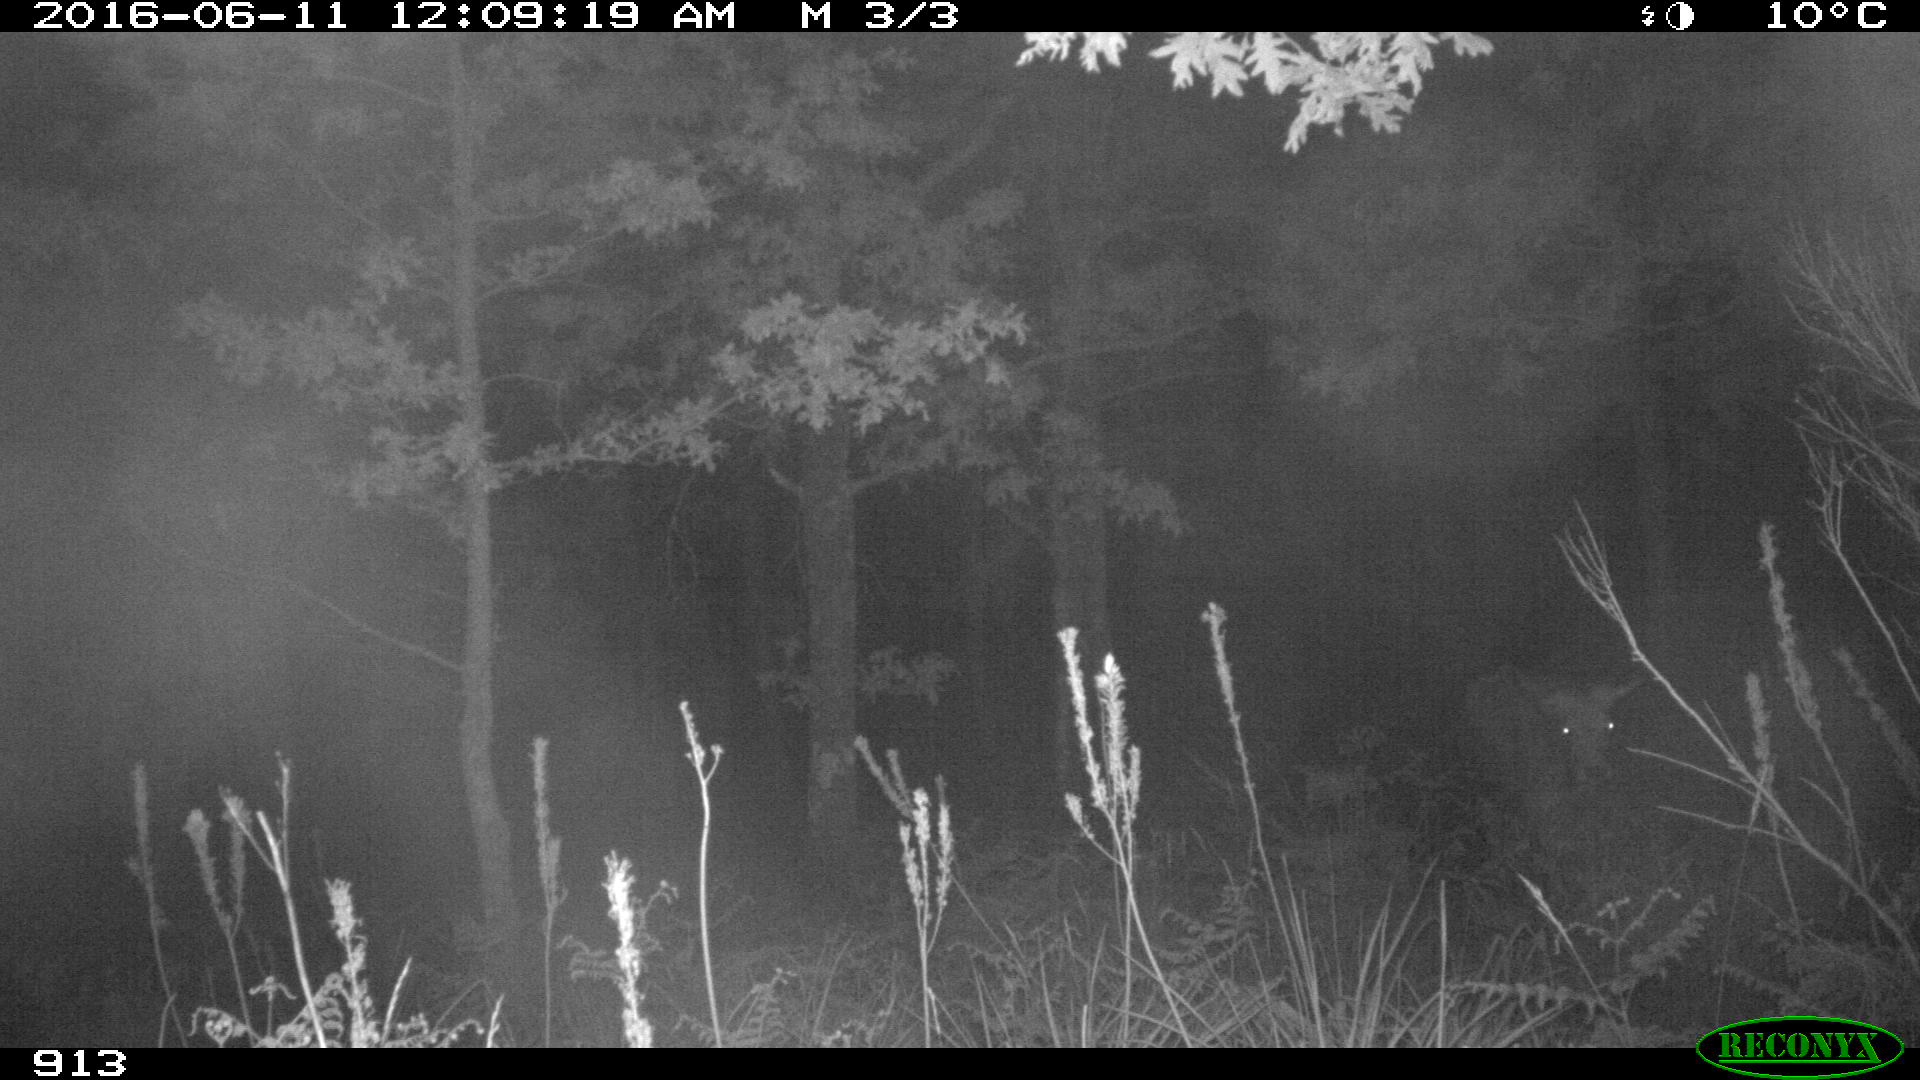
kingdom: Animalia
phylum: Chordata
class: Mammalia
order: Artiodactyla
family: Bovidae
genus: Bos
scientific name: Bos taurus
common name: Domesticated cattle
